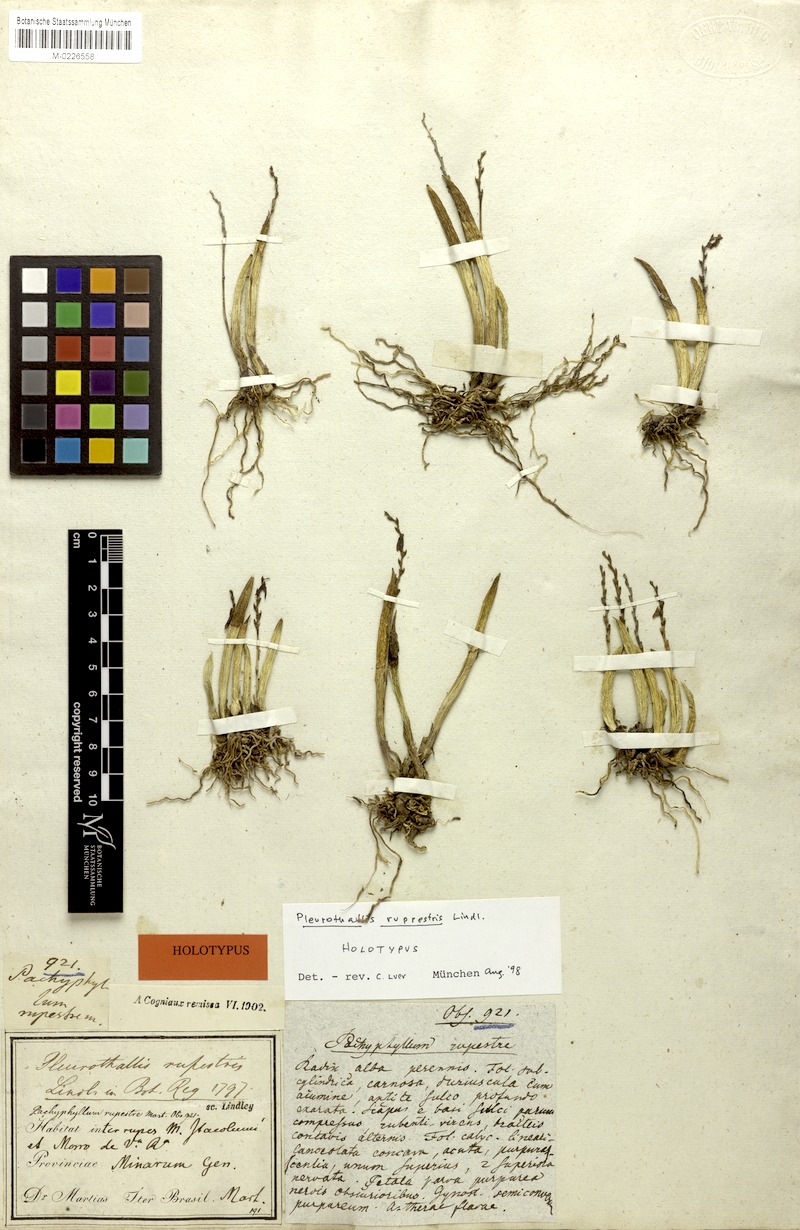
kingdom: Plantae
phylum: Tracheophyta
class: Liliopsida
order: Asparagales
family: Orchidaceae
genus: Acianthera
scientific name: Acianthera teres
